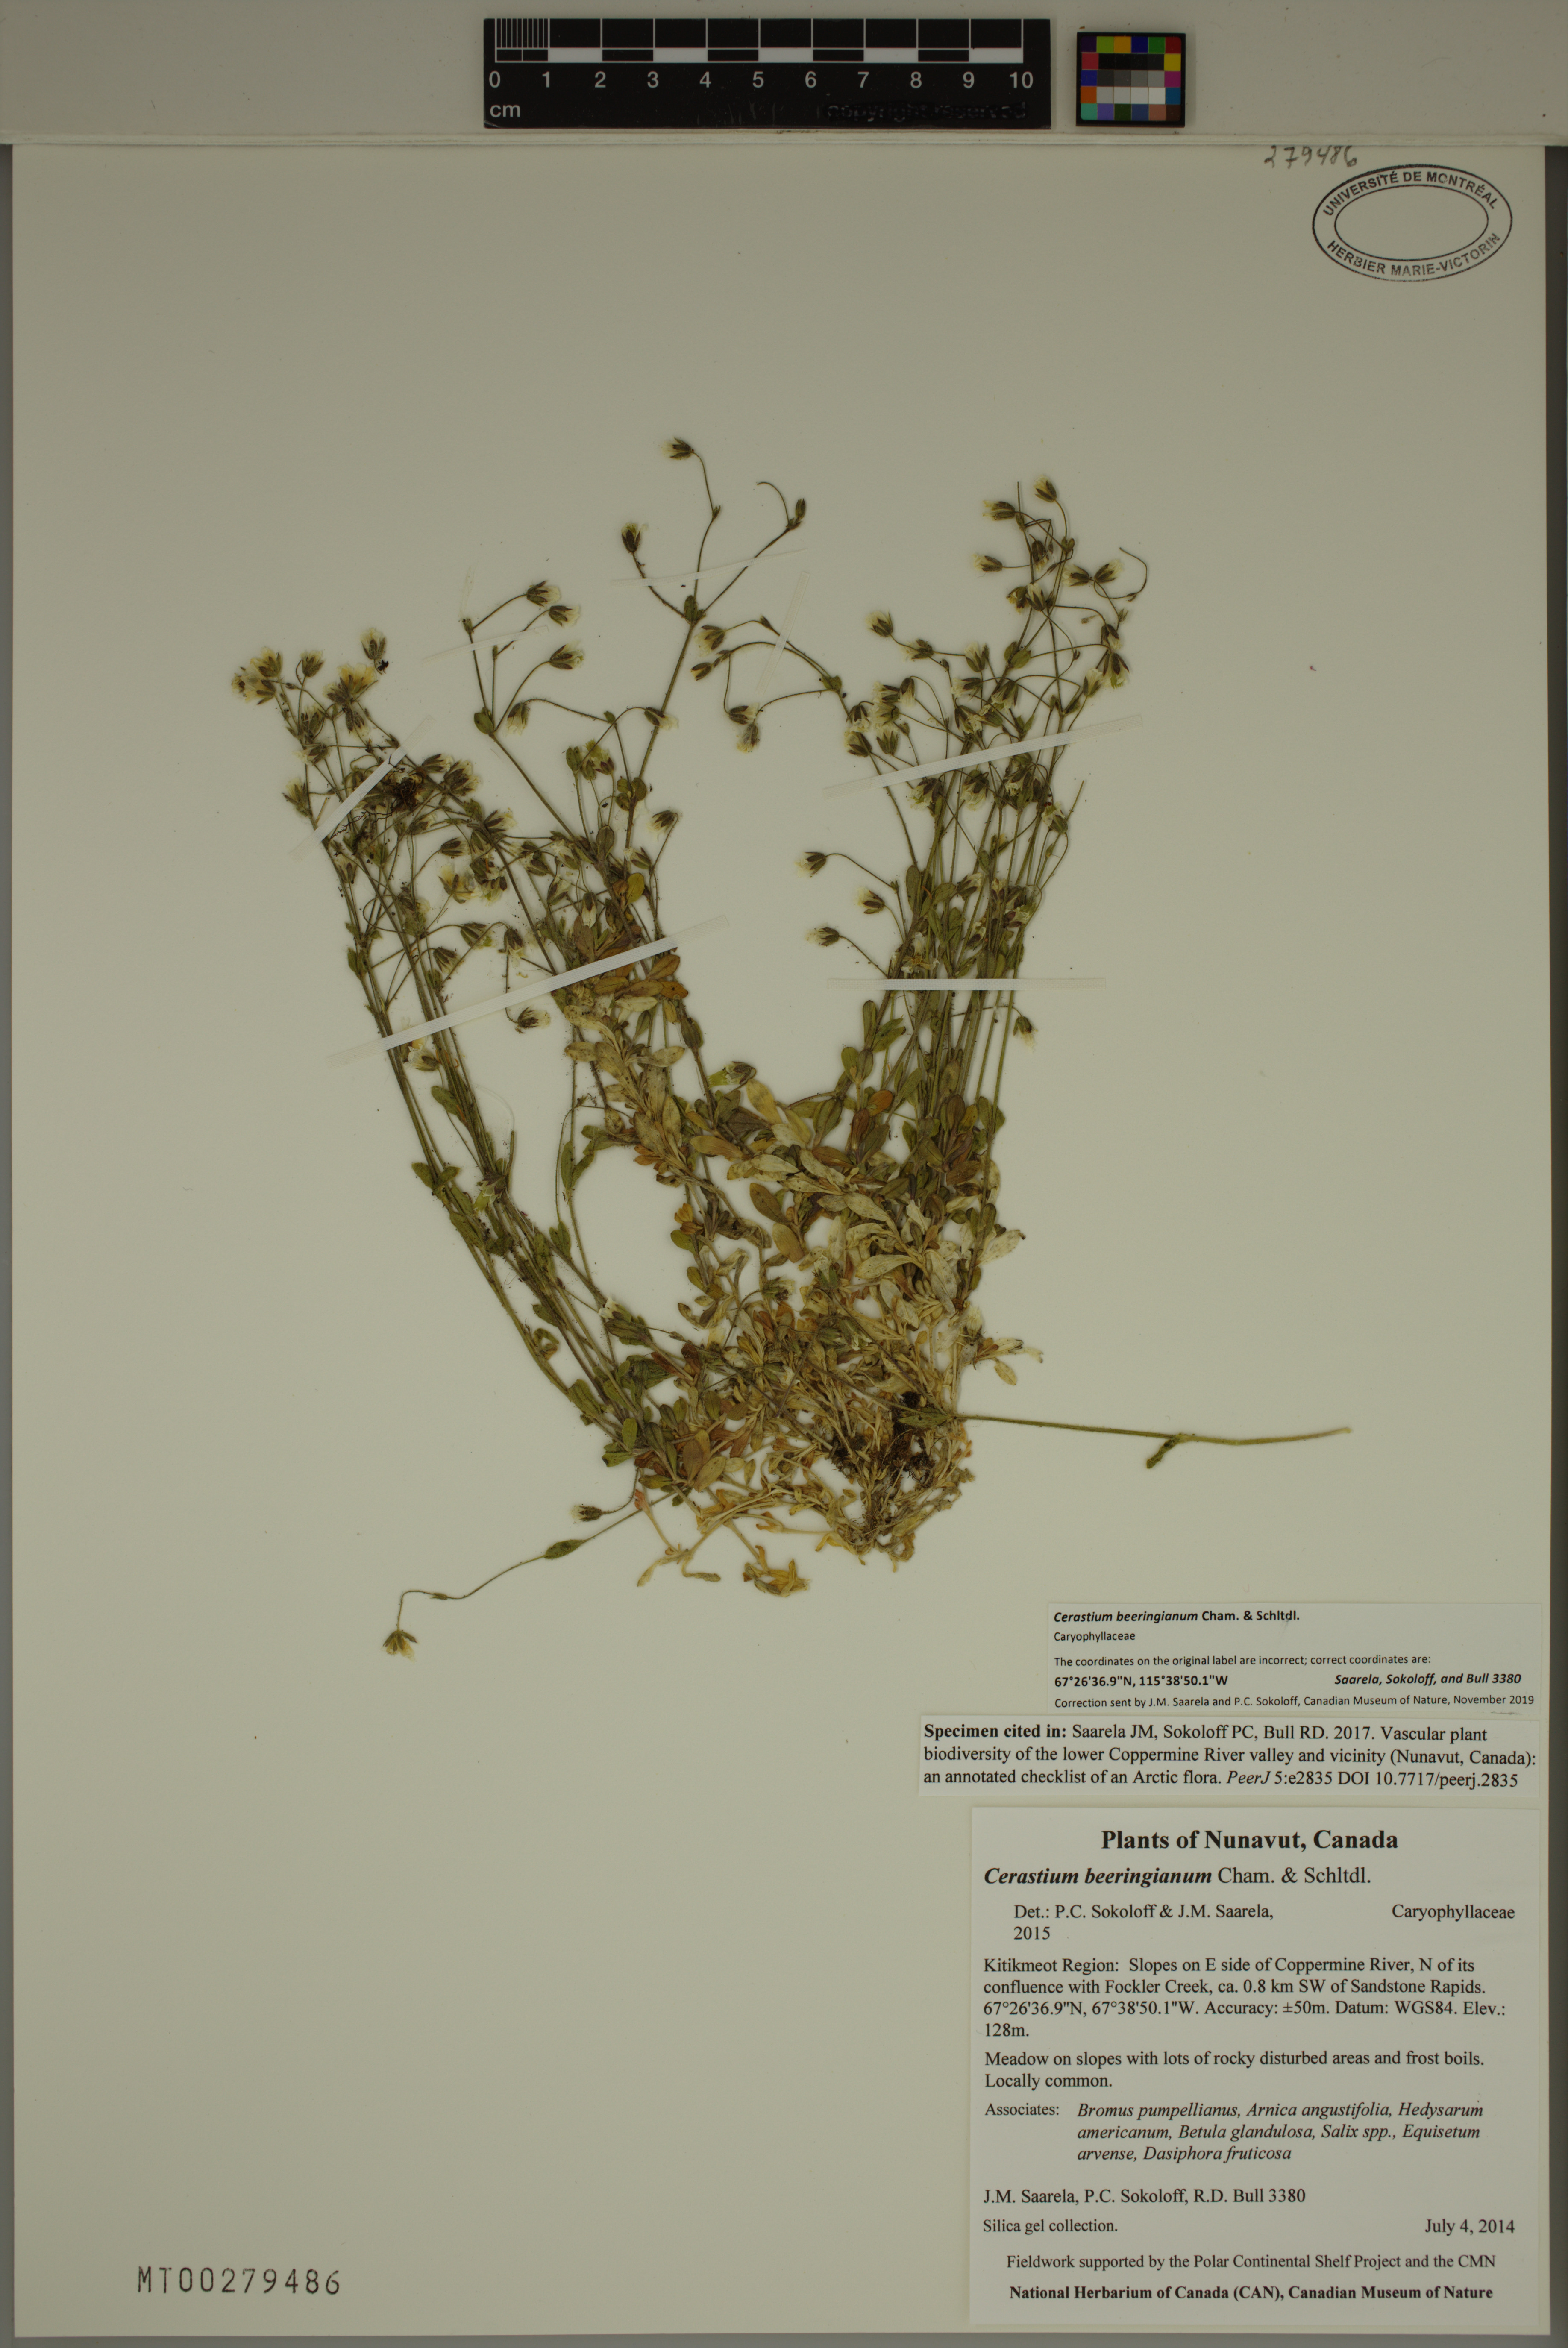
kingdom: Plantae
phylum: Tracheophyta
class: Magnoliopsida
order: Caryophyllales
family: Caryophyllaceae
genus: Cerastium
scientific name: Cerastium beeringianum
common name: Bering mouse-ear chickweed
